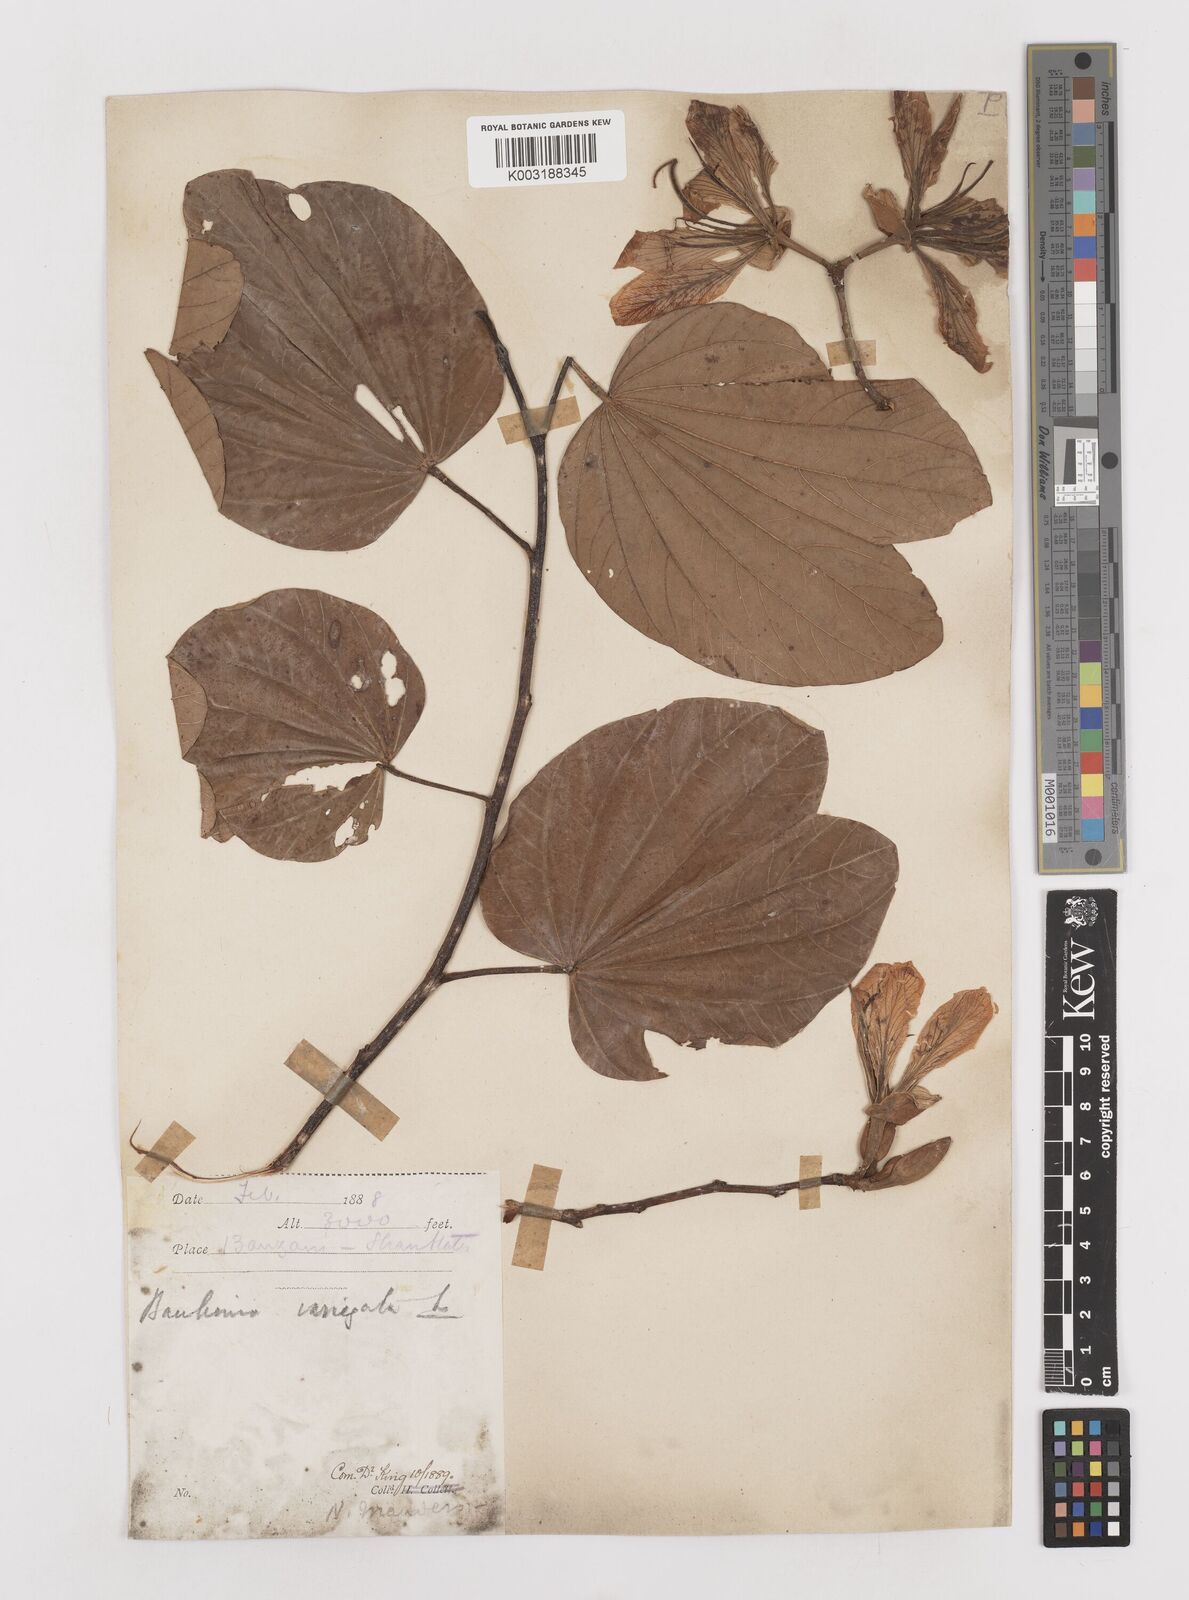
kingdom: Plantae
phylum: Tracheophyta
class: Magnoliopsida
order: Fabales
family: Fabaceae
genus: Bauhinia
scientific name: Bauhinia variegata
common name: Mountain ebony
